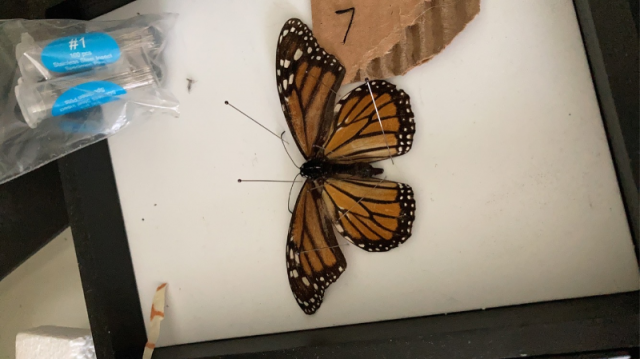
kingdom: Animalia
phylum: Arthropoda
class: Insecta
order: Lepidoptera
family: Nymphalidae
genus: Danaus
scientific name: Danaus plexippus
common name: Monarch
